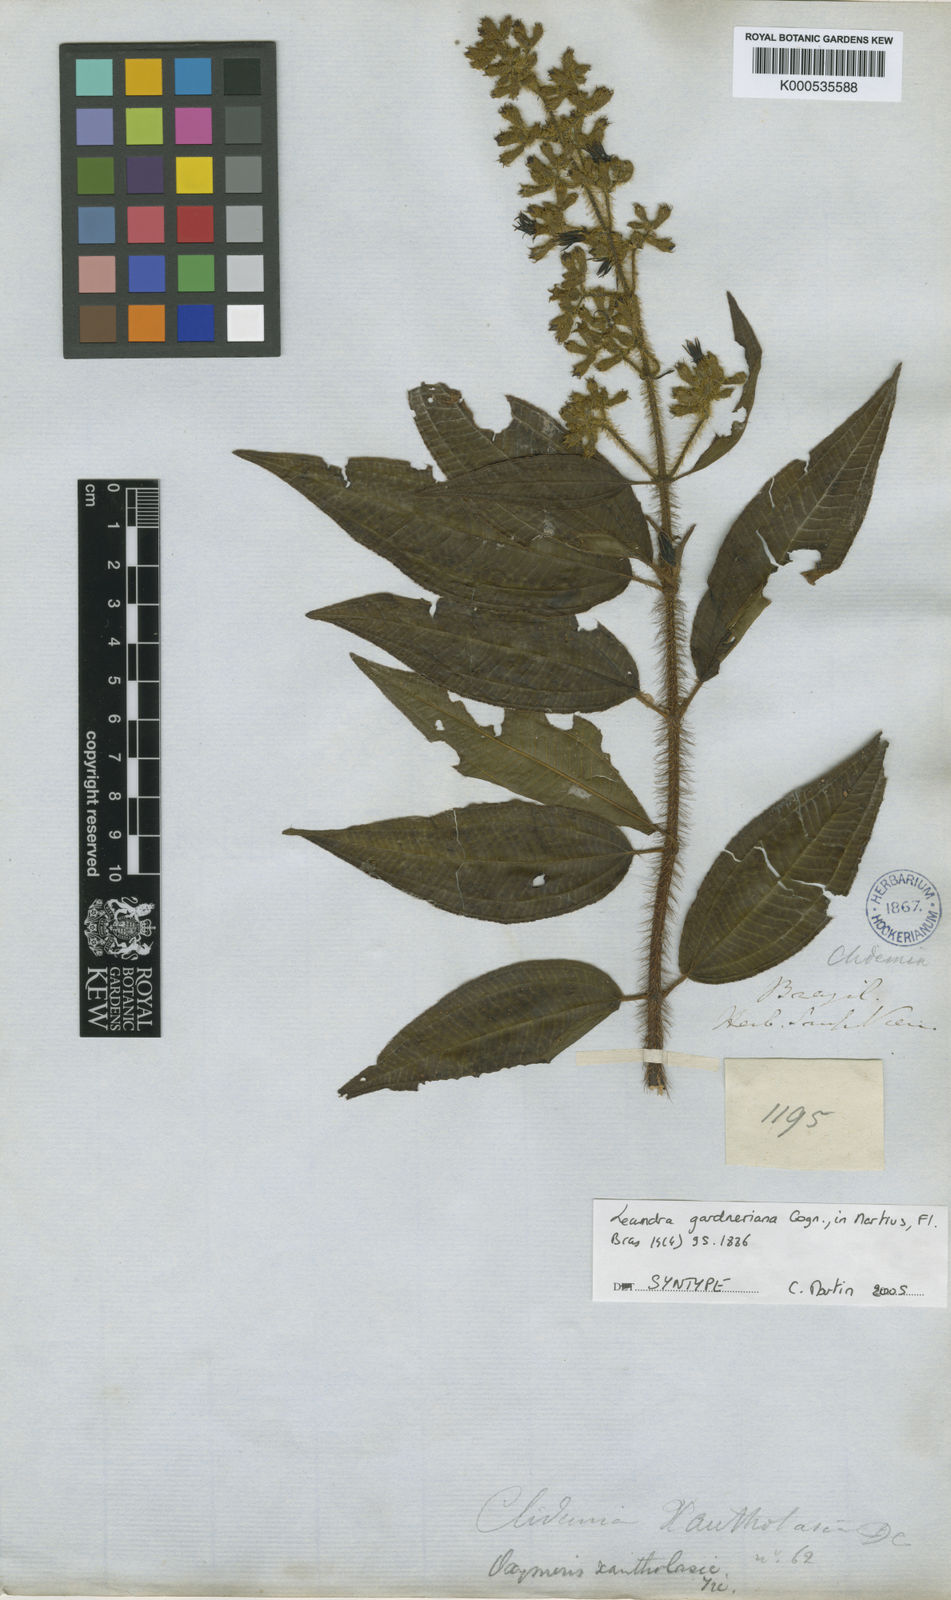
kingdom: Plantae
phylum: Tracheophyta
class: Magnoliopsida
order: Myrtales
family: Melastomataceae
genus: Miconia
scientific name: Miconia xantholasia
